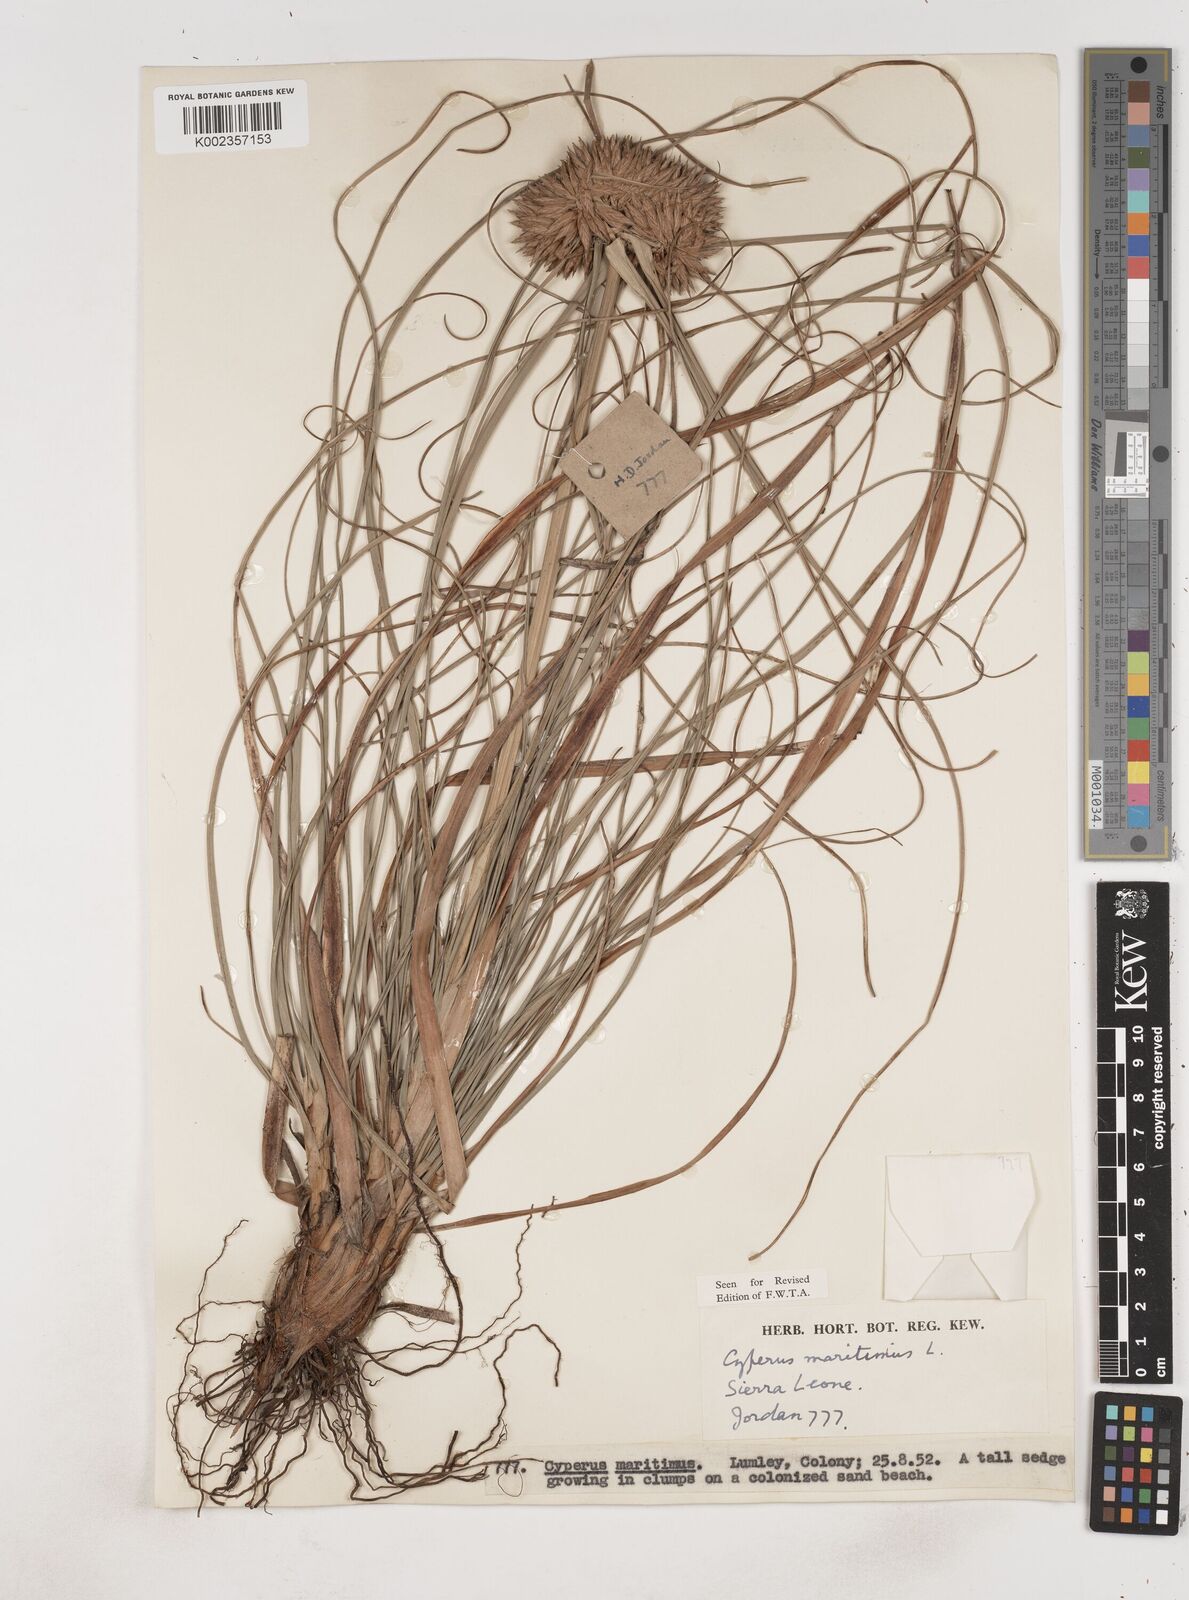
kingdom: Plantae
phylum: Tracheophyta
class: Liliopsida
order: Poales
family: Cyperaceae
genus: Cyperus
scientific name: Cyperus crassipes
